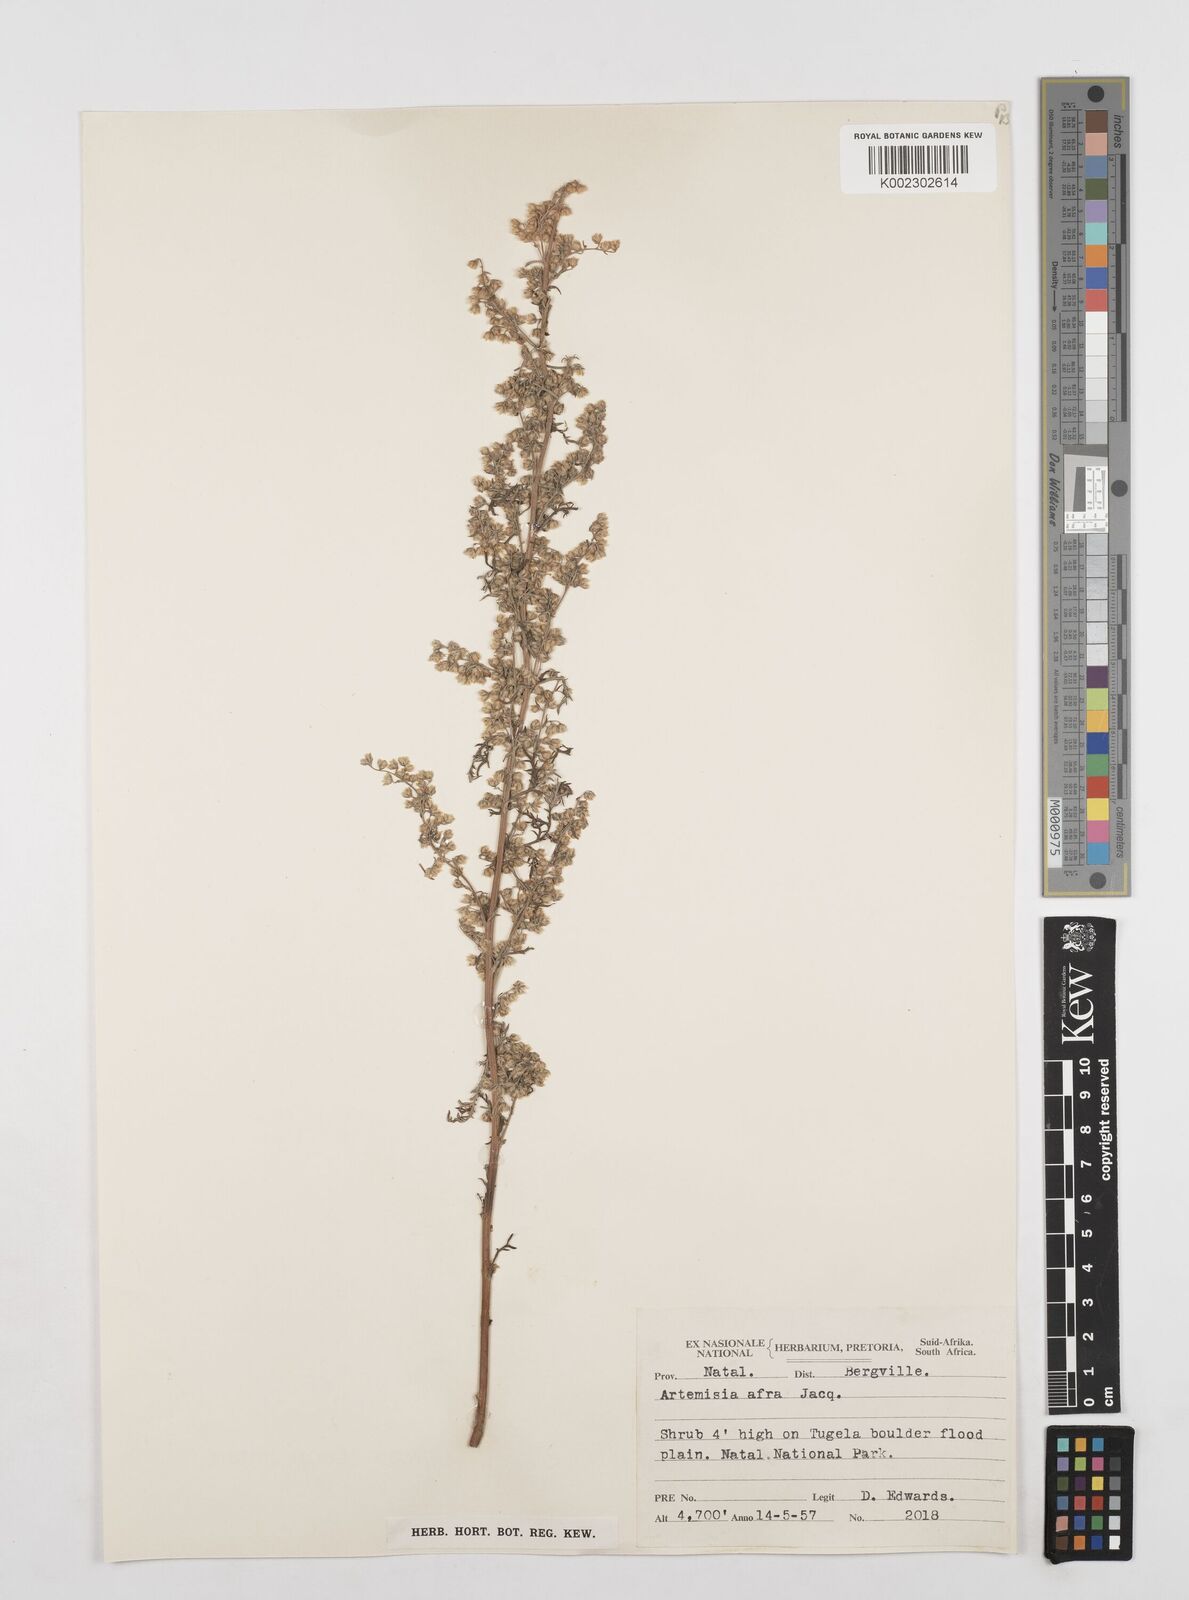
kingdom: Plantae
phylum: Tracheophyta
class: Magnoliopsida
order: Asterales
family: Asteraceae
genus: Artemisia
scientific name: Artemisia afra
